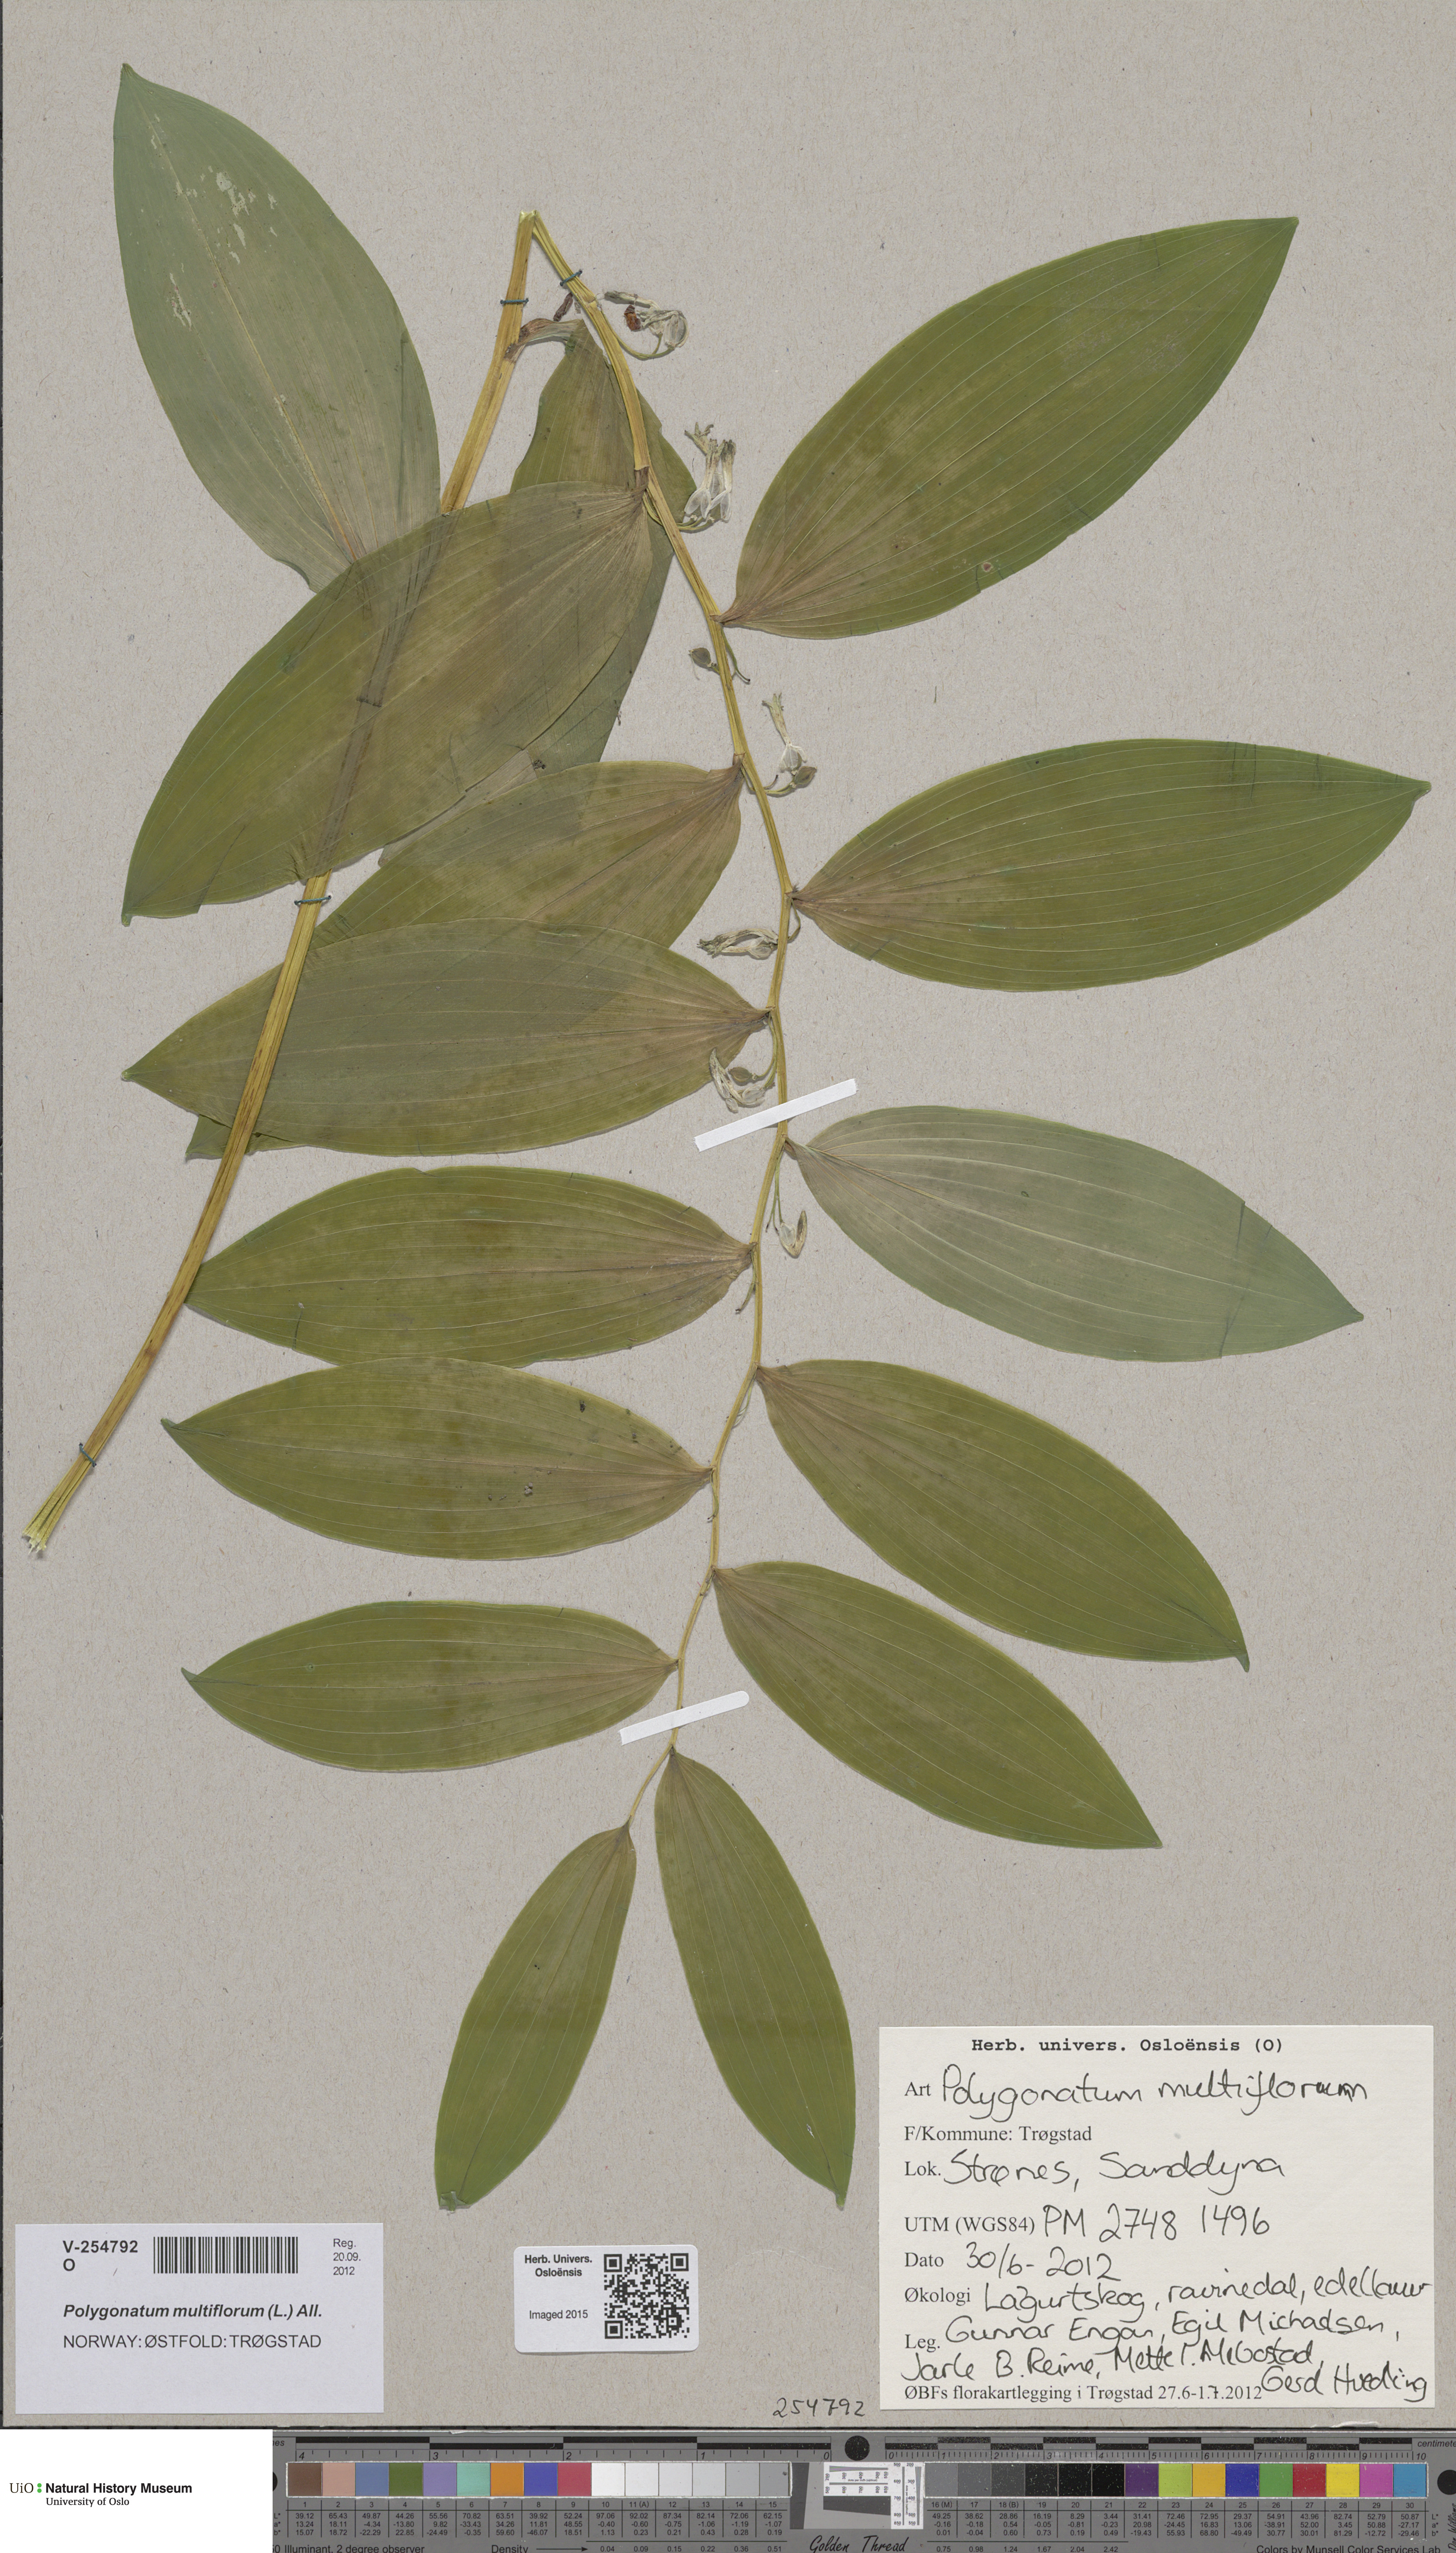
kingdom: Plantae
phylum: Tracheophyta
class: Liliopsida
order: Asparagales
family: Asparagaceae
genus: Polygonatum
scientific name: Polygonatum multiflorum
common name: Solomon's-seal
